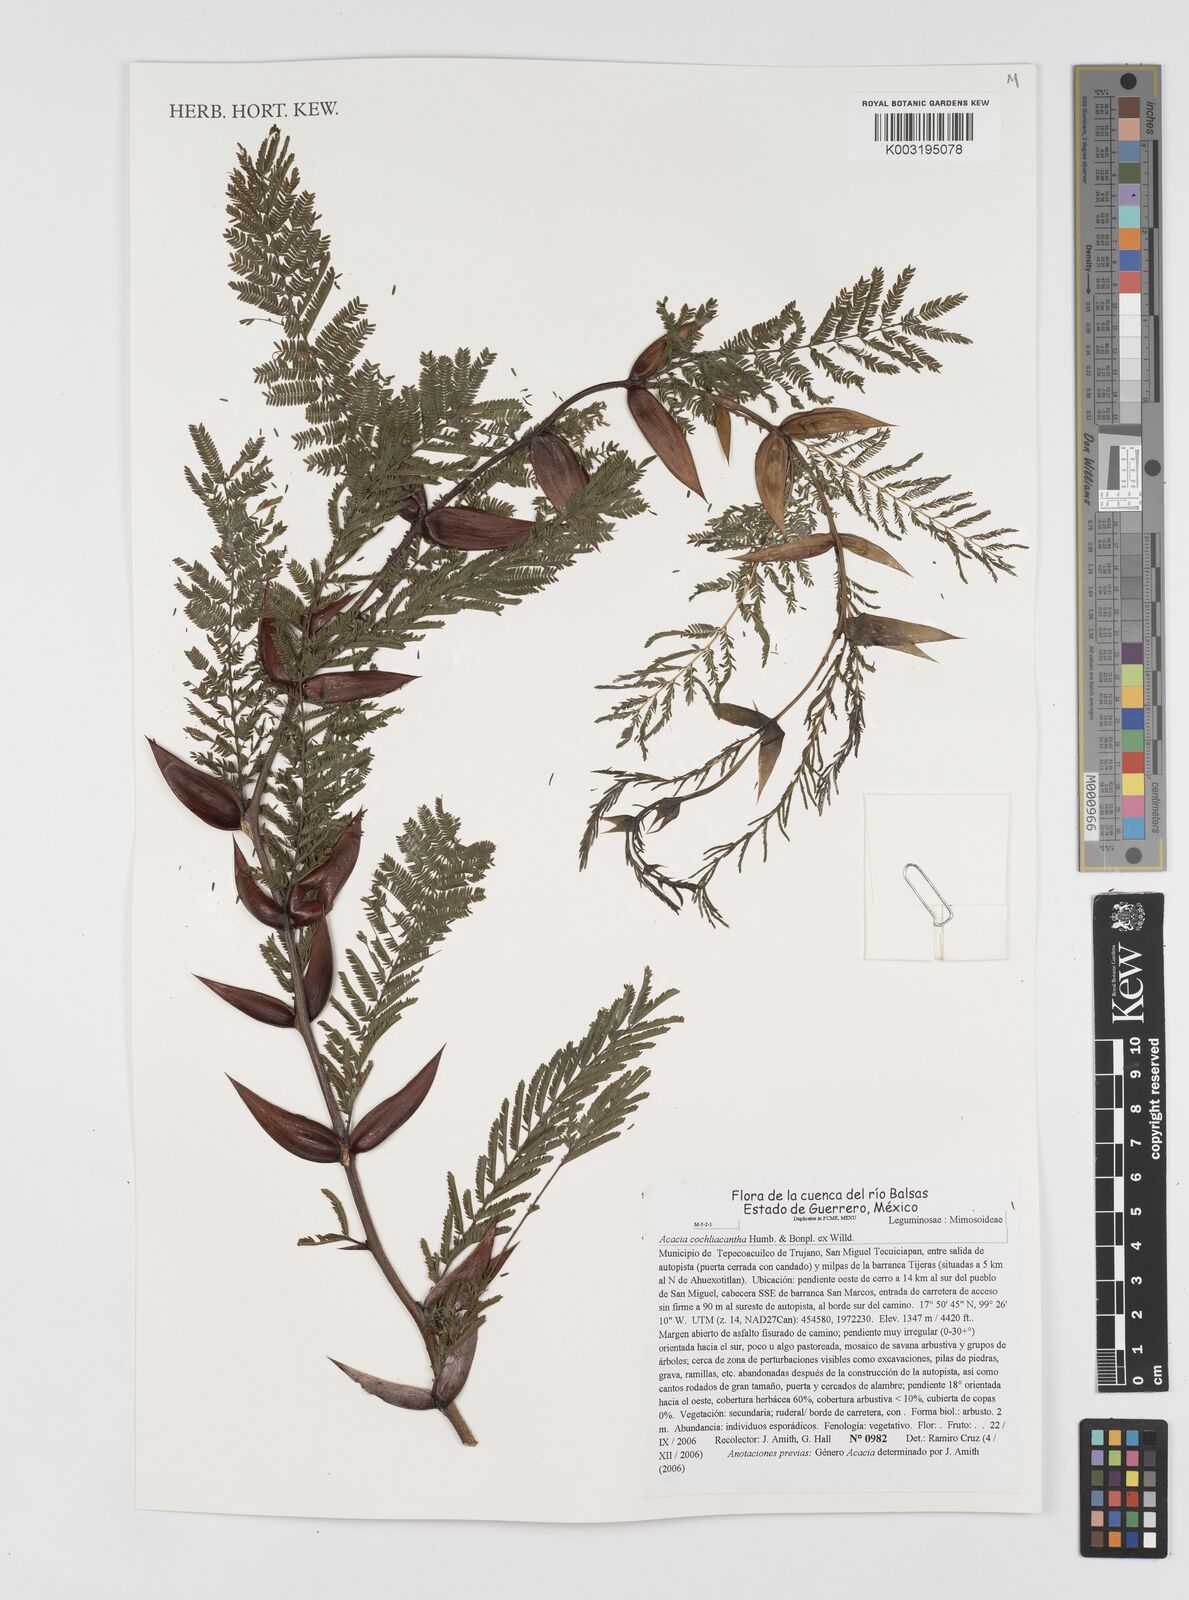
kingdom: Plantae
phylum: Tracheophyta
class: Magnoliopsida
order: Fabales
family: Fabaceae
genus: Vachellia
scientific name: Vachellia campeachiana
